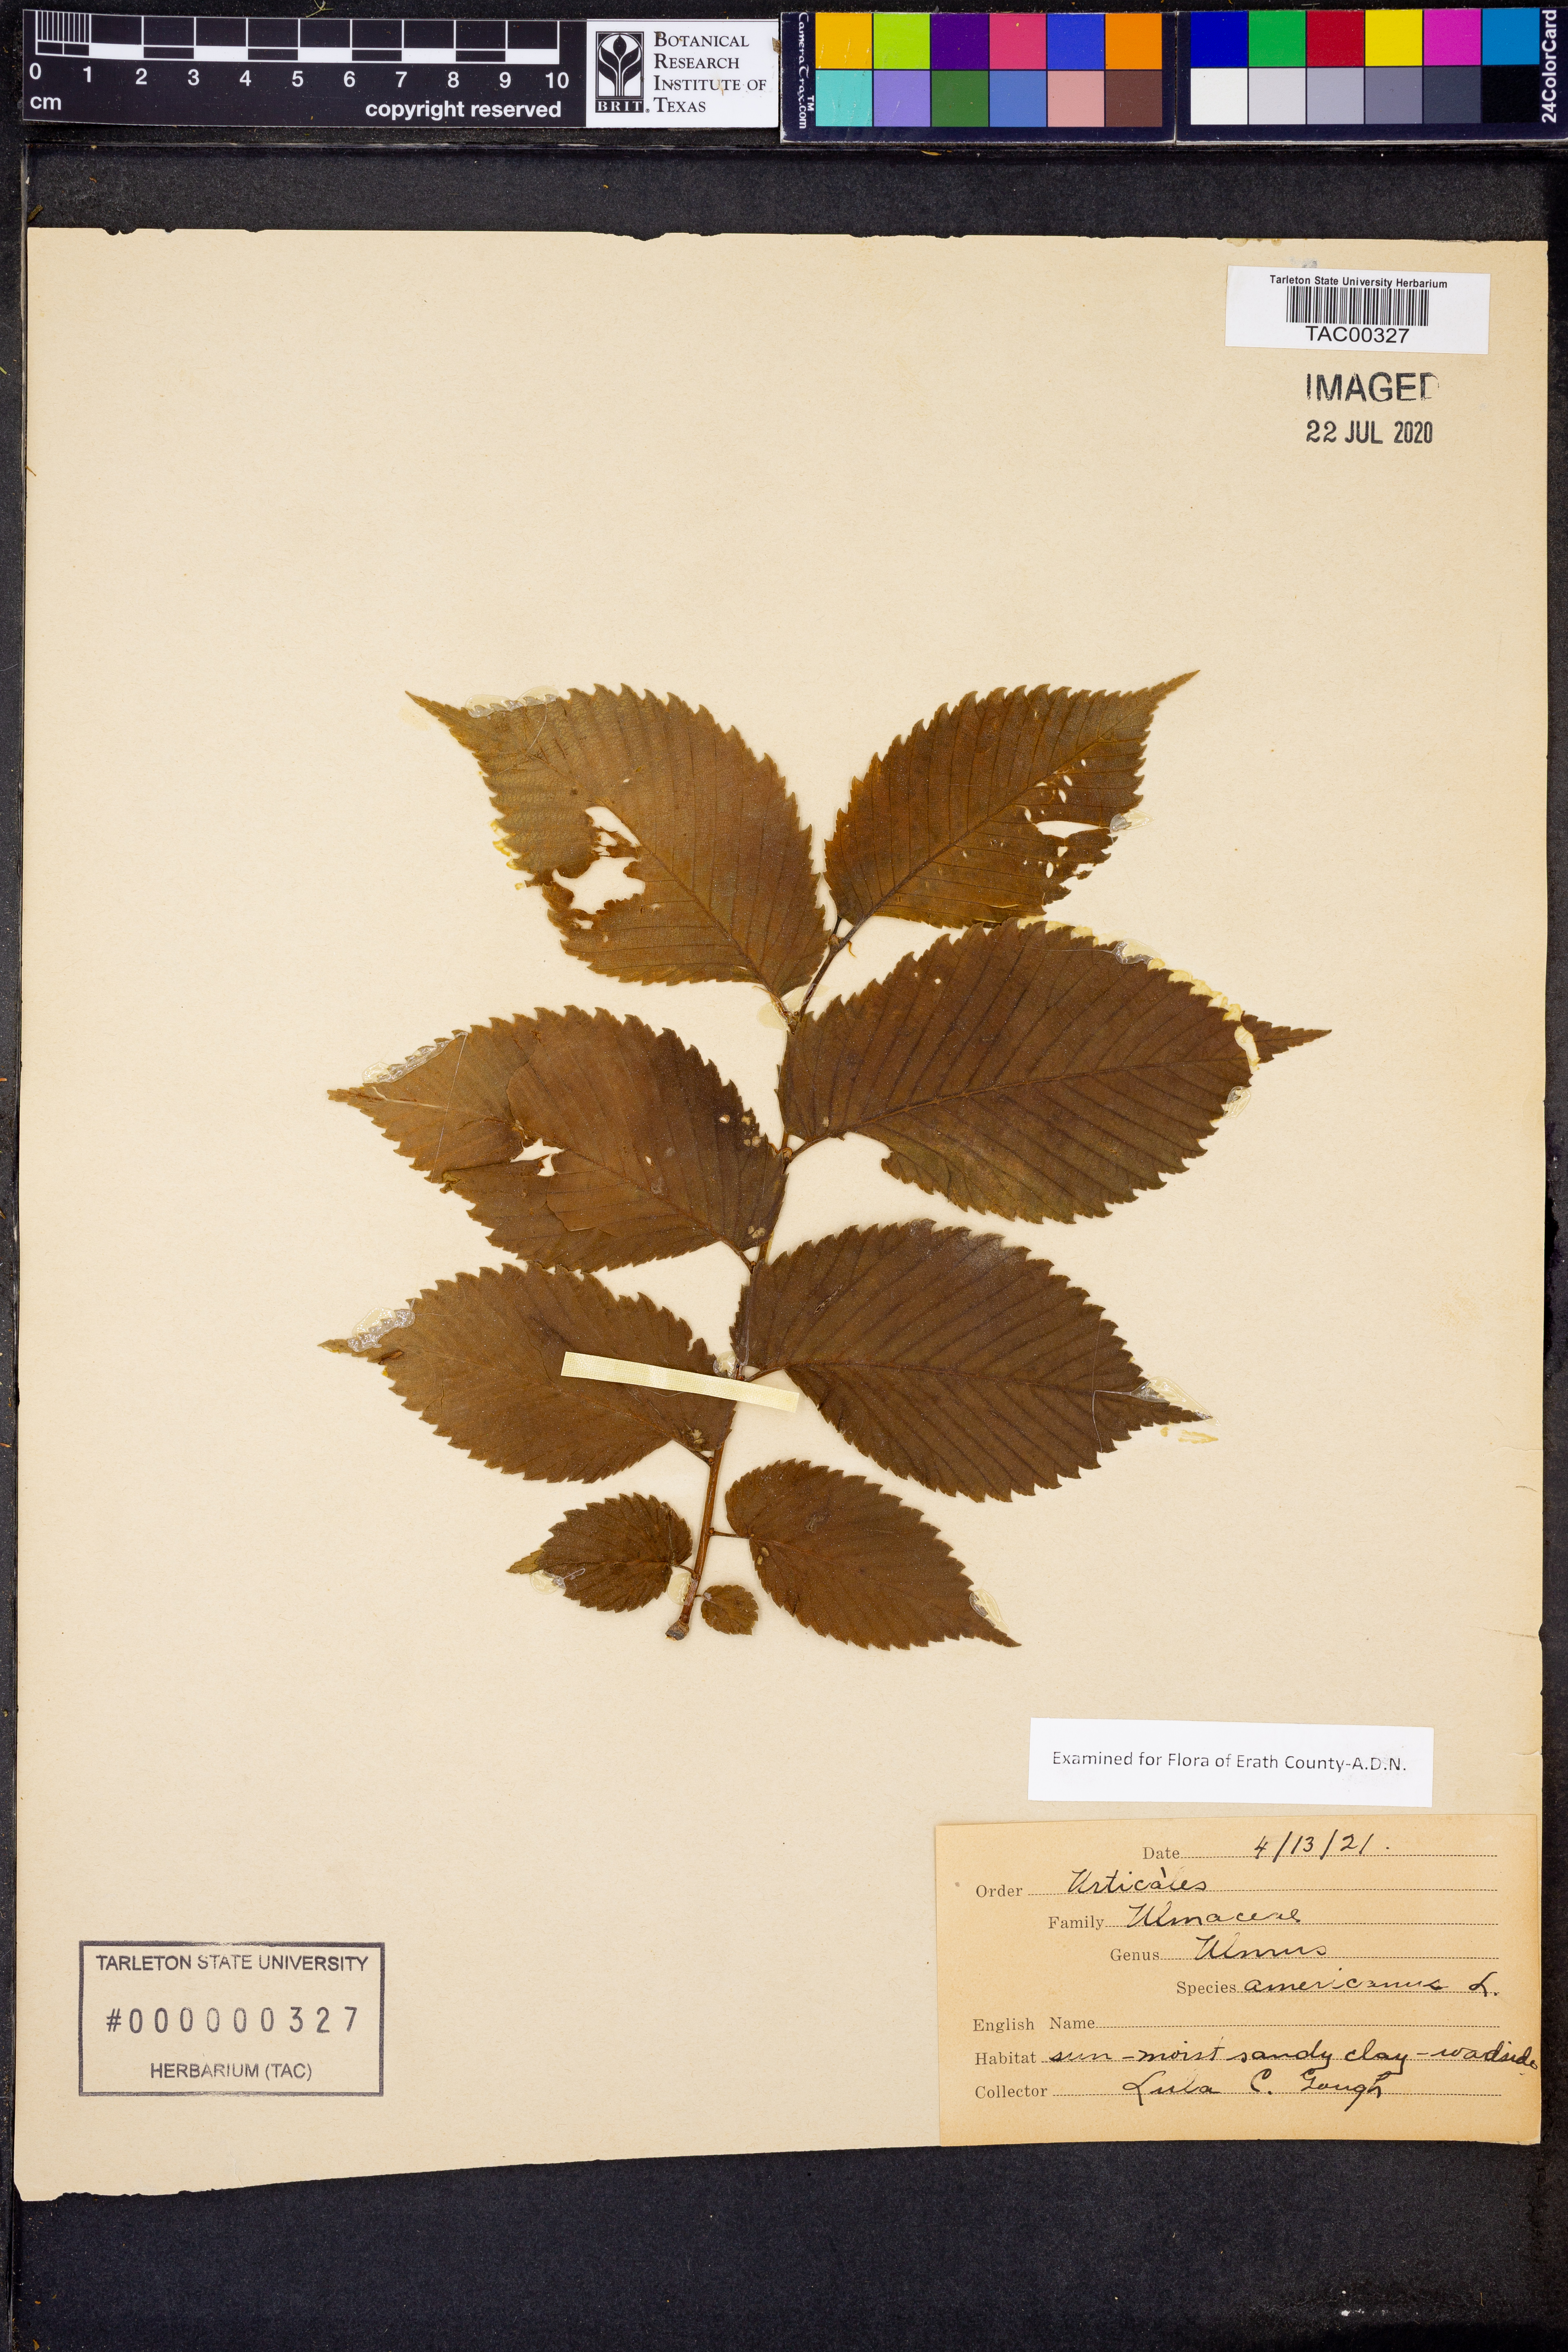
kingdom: Plantae
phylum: Tracheophyta
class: Magnoliopsida
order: Rosales
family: Ulmaceae
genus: Ulmus
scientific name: Ulmus americana
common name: American elm
